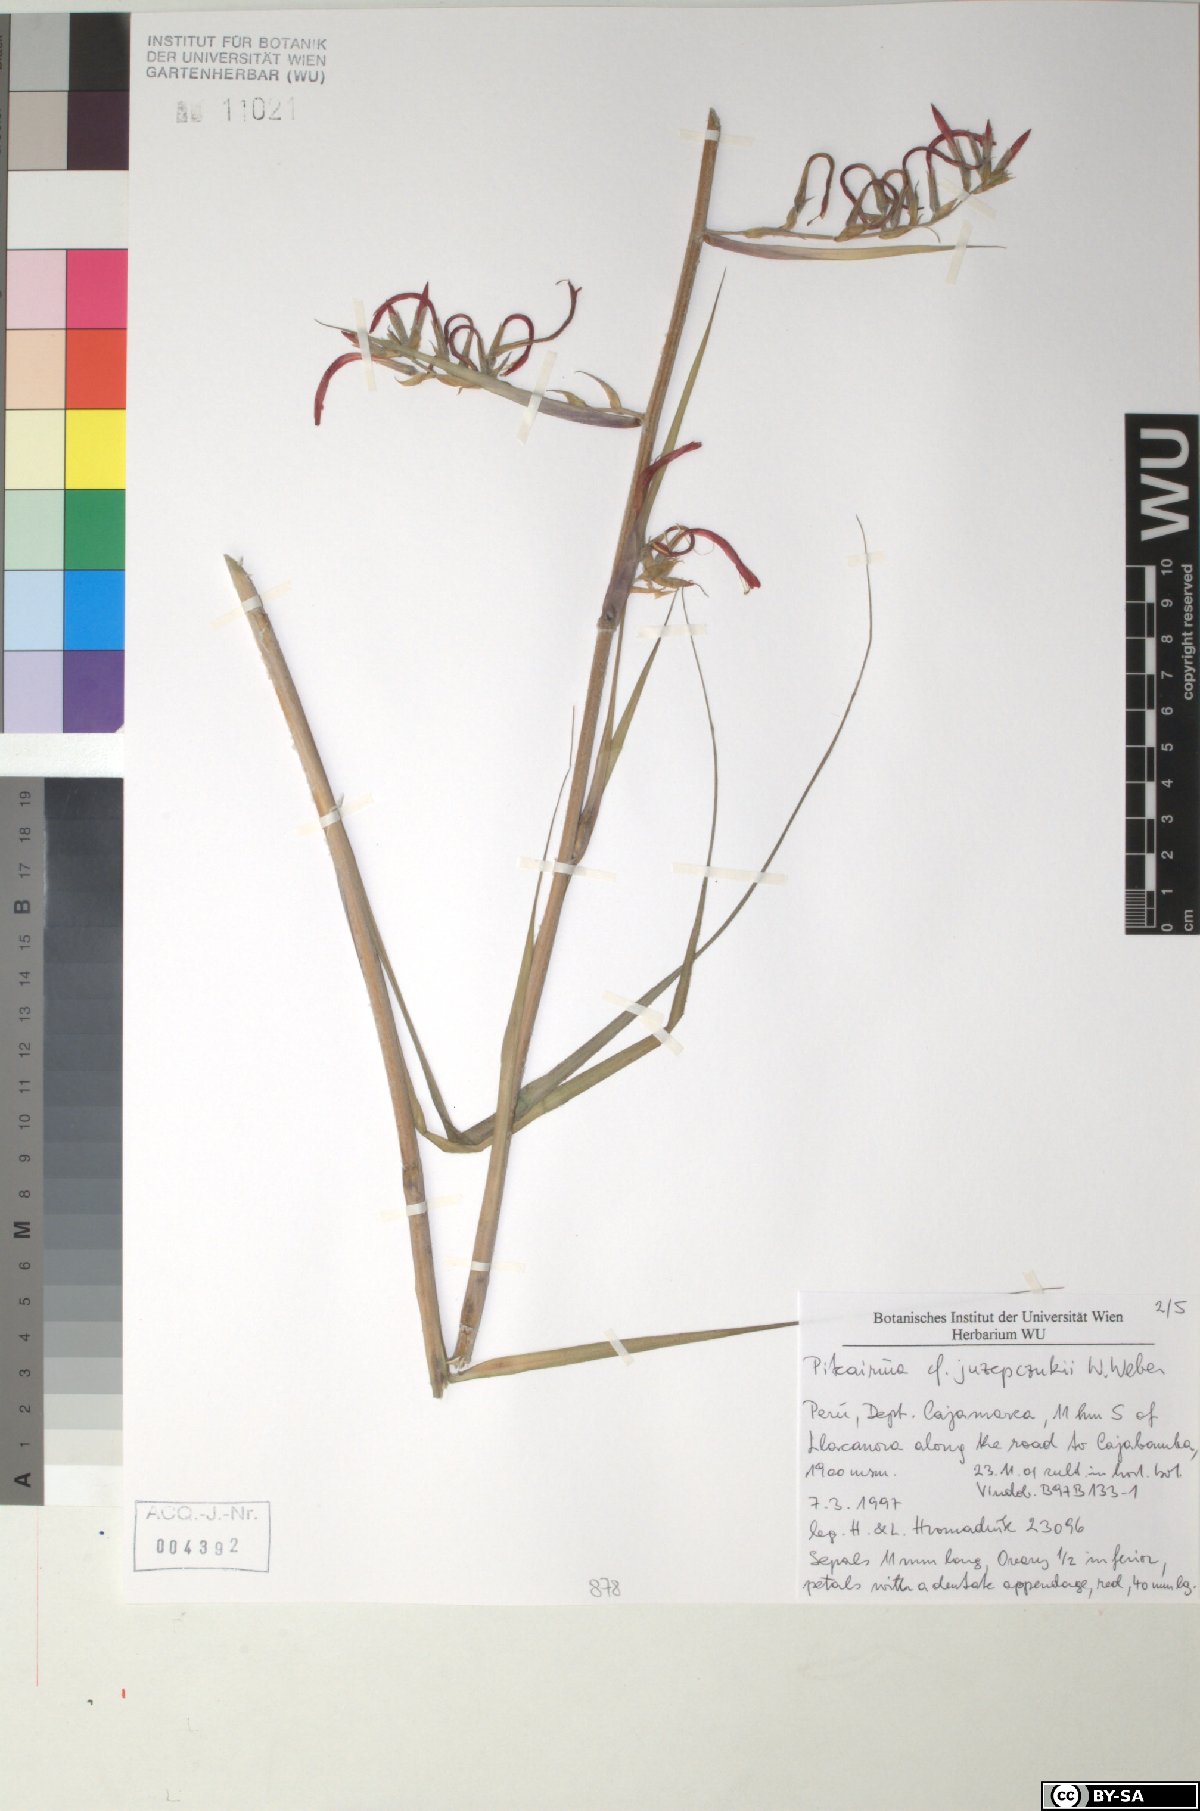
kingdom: Plantae
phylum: Tracheophyta
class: Liliopsida
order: Poales
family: Bromeliaceae
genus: Pitcairnia
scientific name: Pitcairnia juzepczukii
